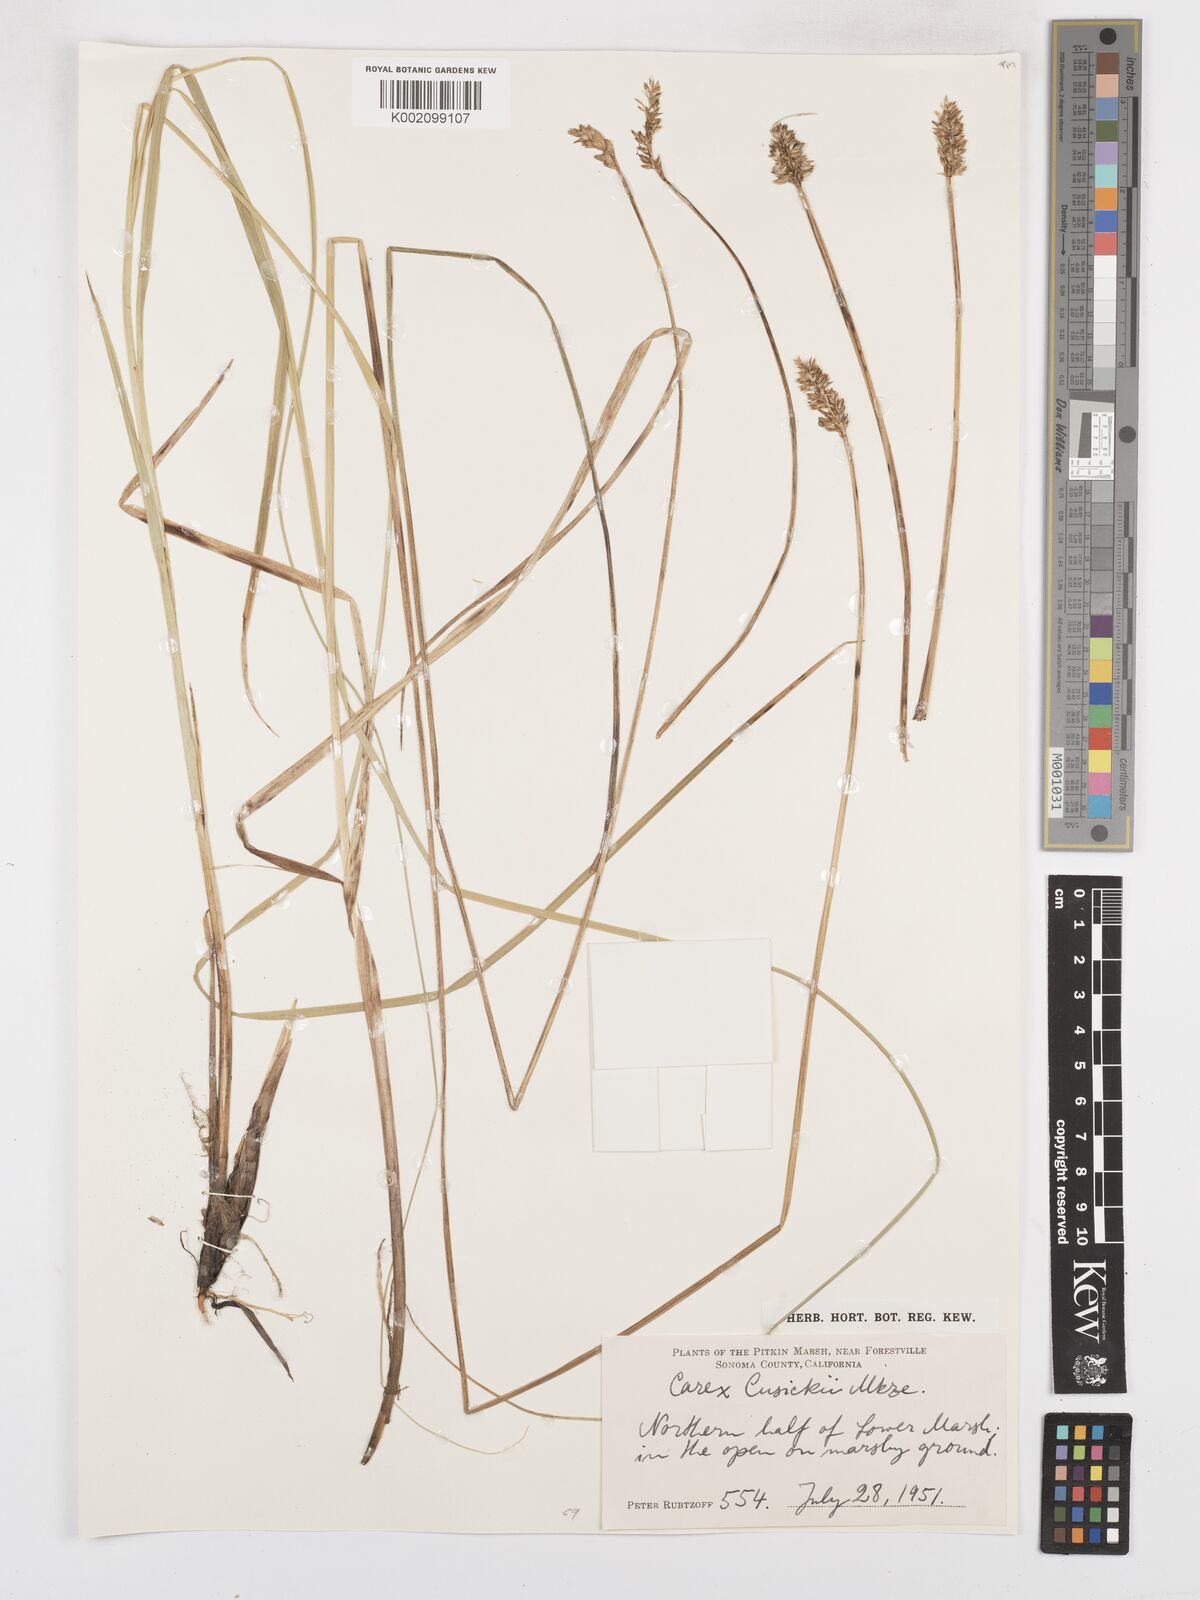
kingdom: Plantae
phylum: Tracheophyta
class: Liliopsida
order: Poales
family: Cyperaceae
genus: Carex
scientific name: Carex cusickii
